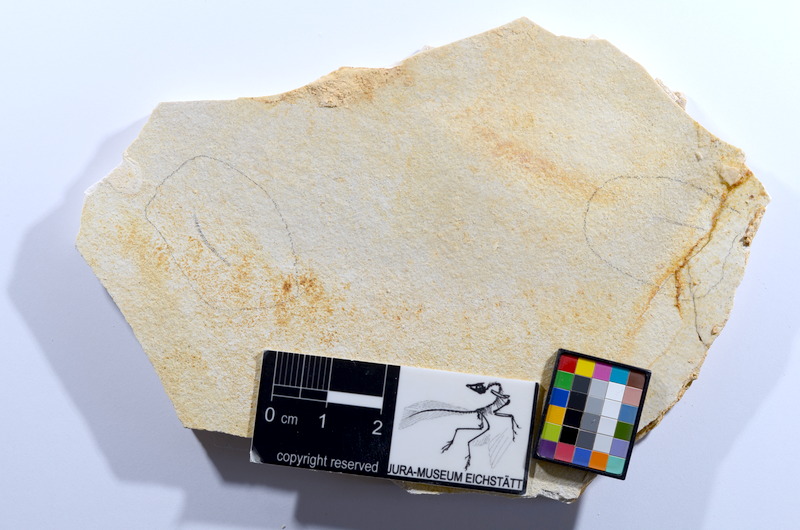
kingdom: Animalia
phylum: Chordata
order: Salmoniformes
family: Orthogonikleithridae
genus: Orthogonikleithrus
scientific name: Orthogonikleithrus hoelli
